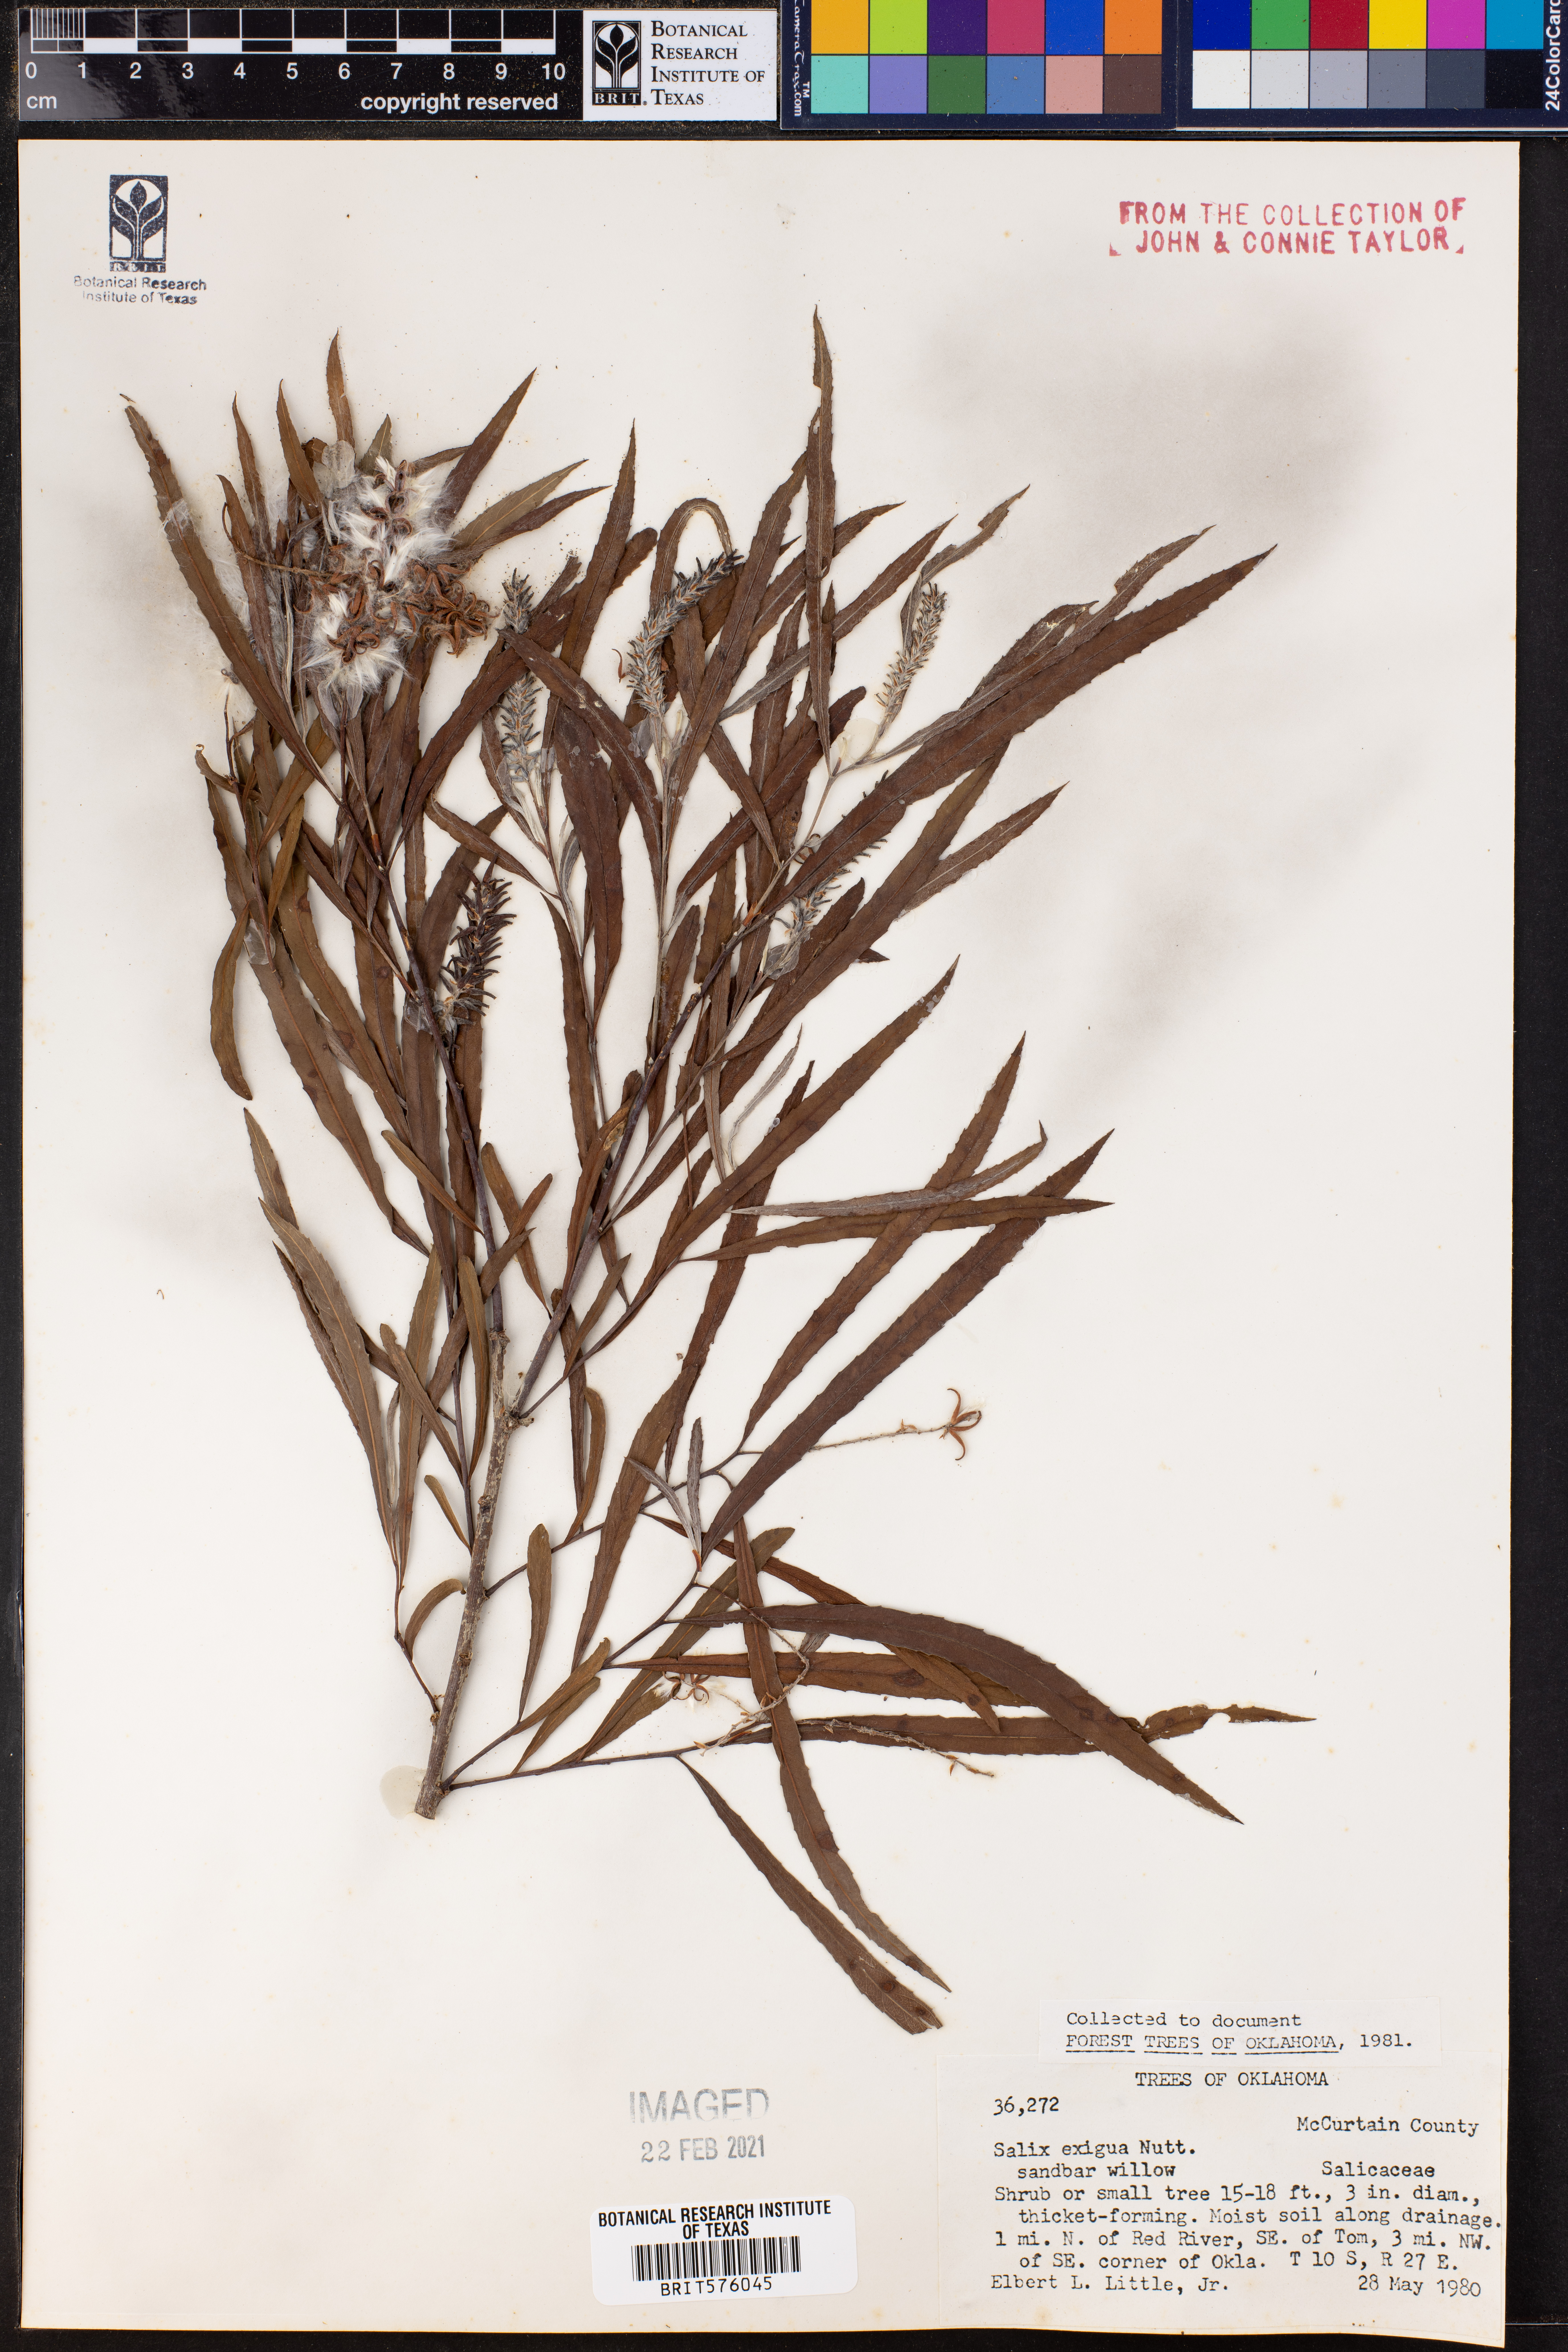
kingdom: Plantae
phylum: Tracheophyta
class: Magnoliopsida
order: Malpighiales
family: Salicaceae
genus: Salix
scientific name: Salix exigua
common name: Coyote willow
